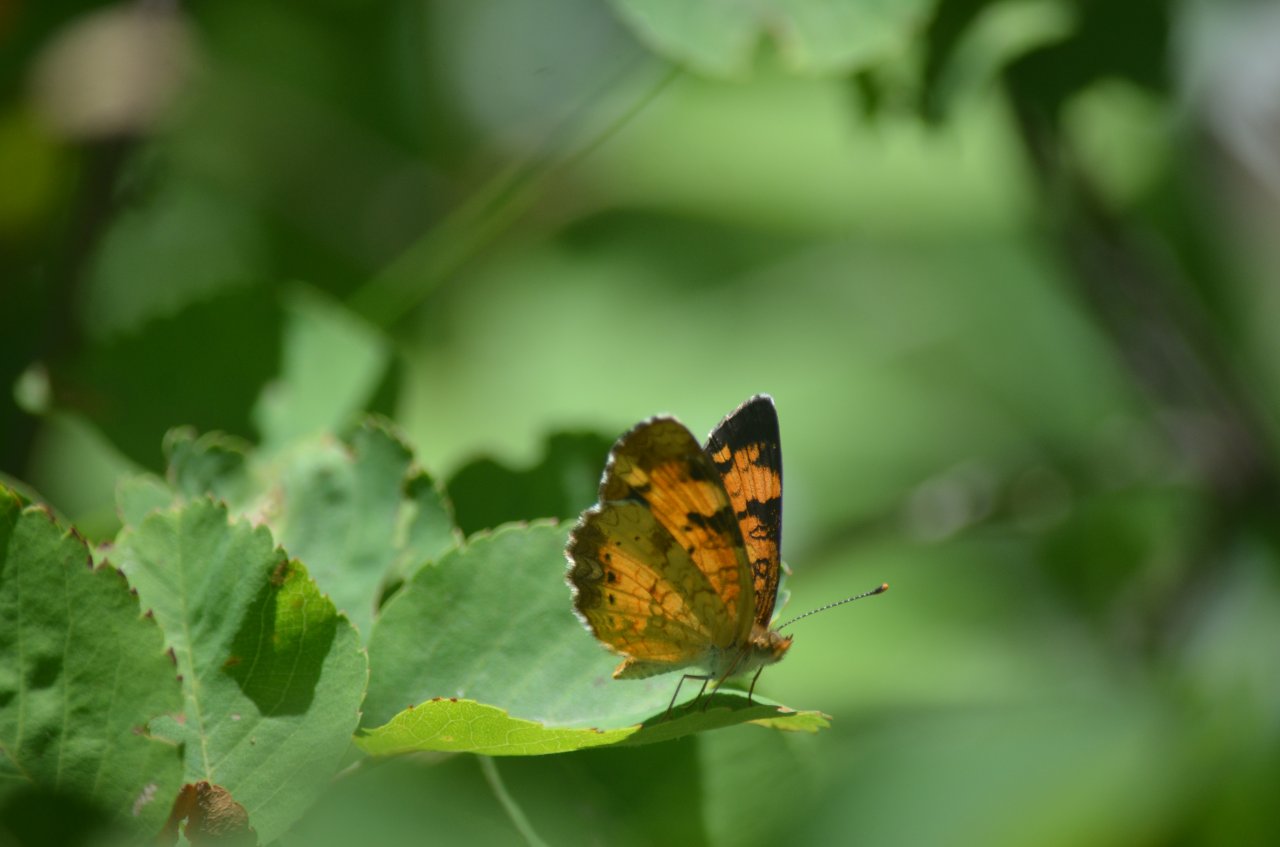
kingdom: Animalia
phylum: Arthropoda
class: Insecta
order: Lepidoptera
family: Nymphalidae
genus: Phyciodes
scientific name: Phyciodes tharos
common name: Northern Crescent
